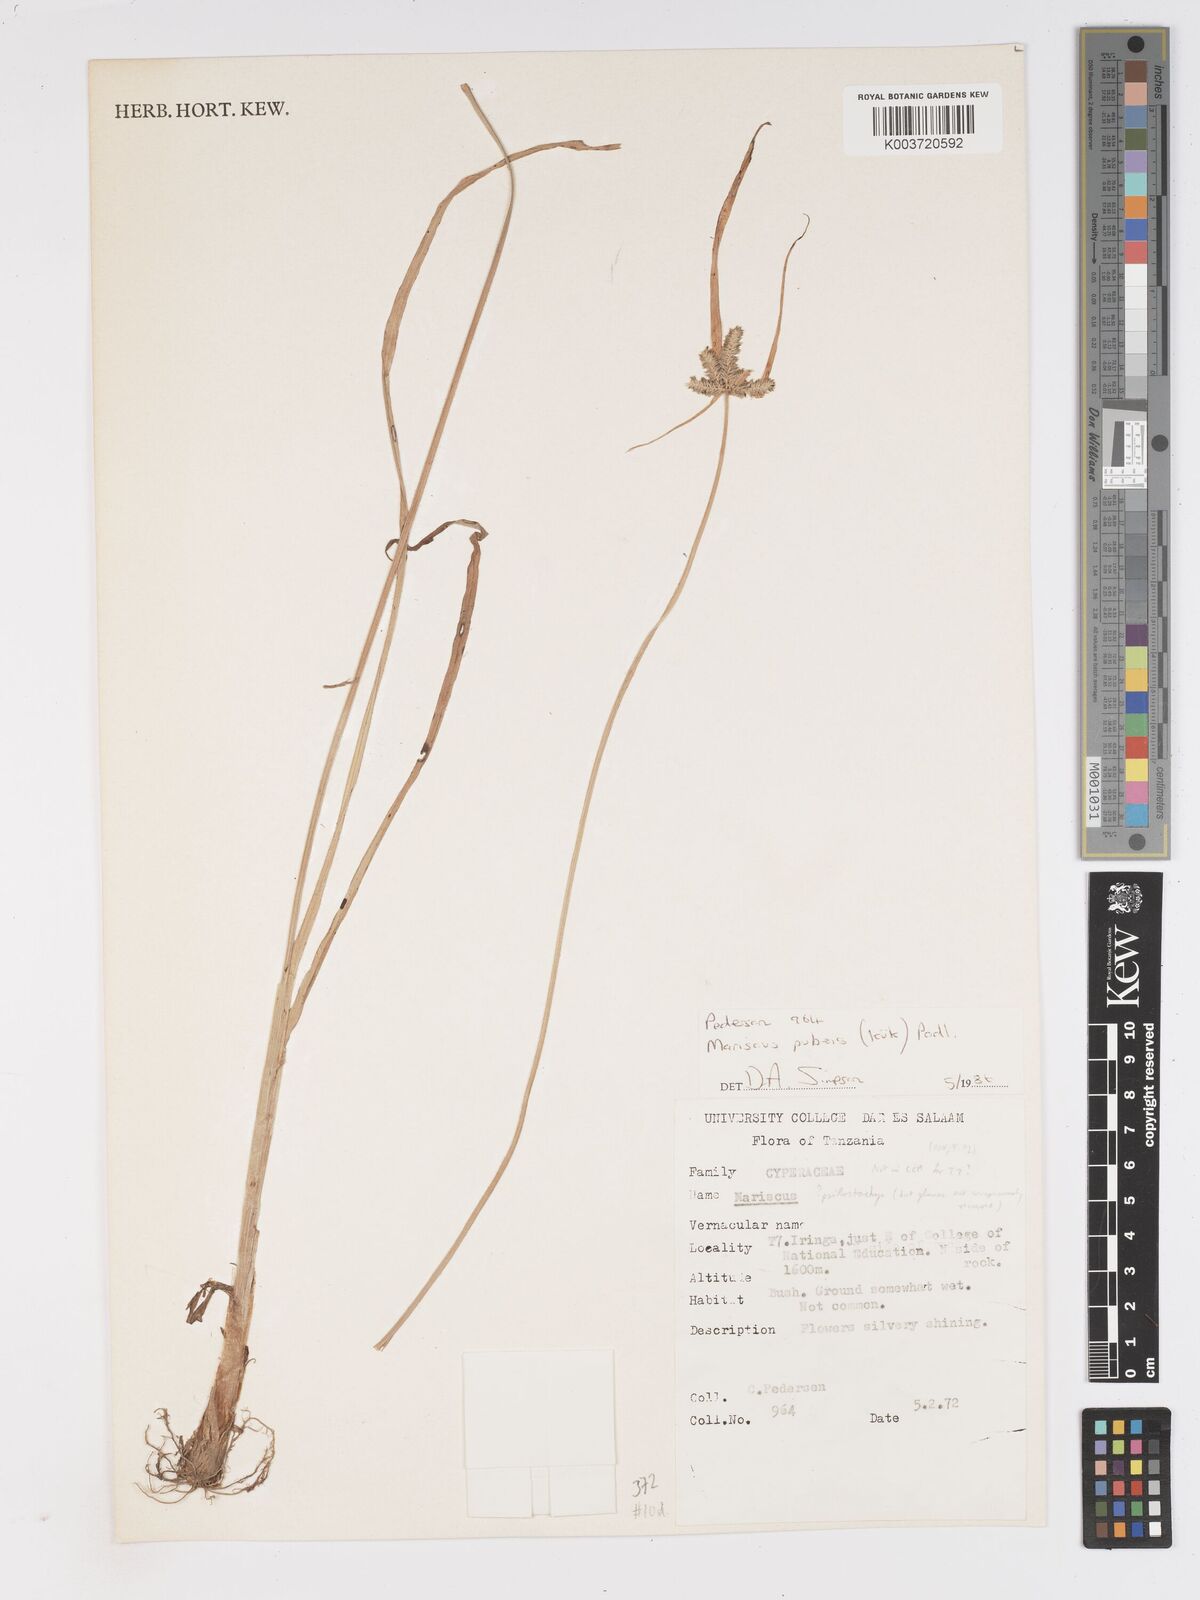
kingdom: Plantae
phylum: Tracheophyta
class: Liliopsida
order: Poales
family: Cyperaceae
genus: Cyperus
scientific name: Cyperus pubens
